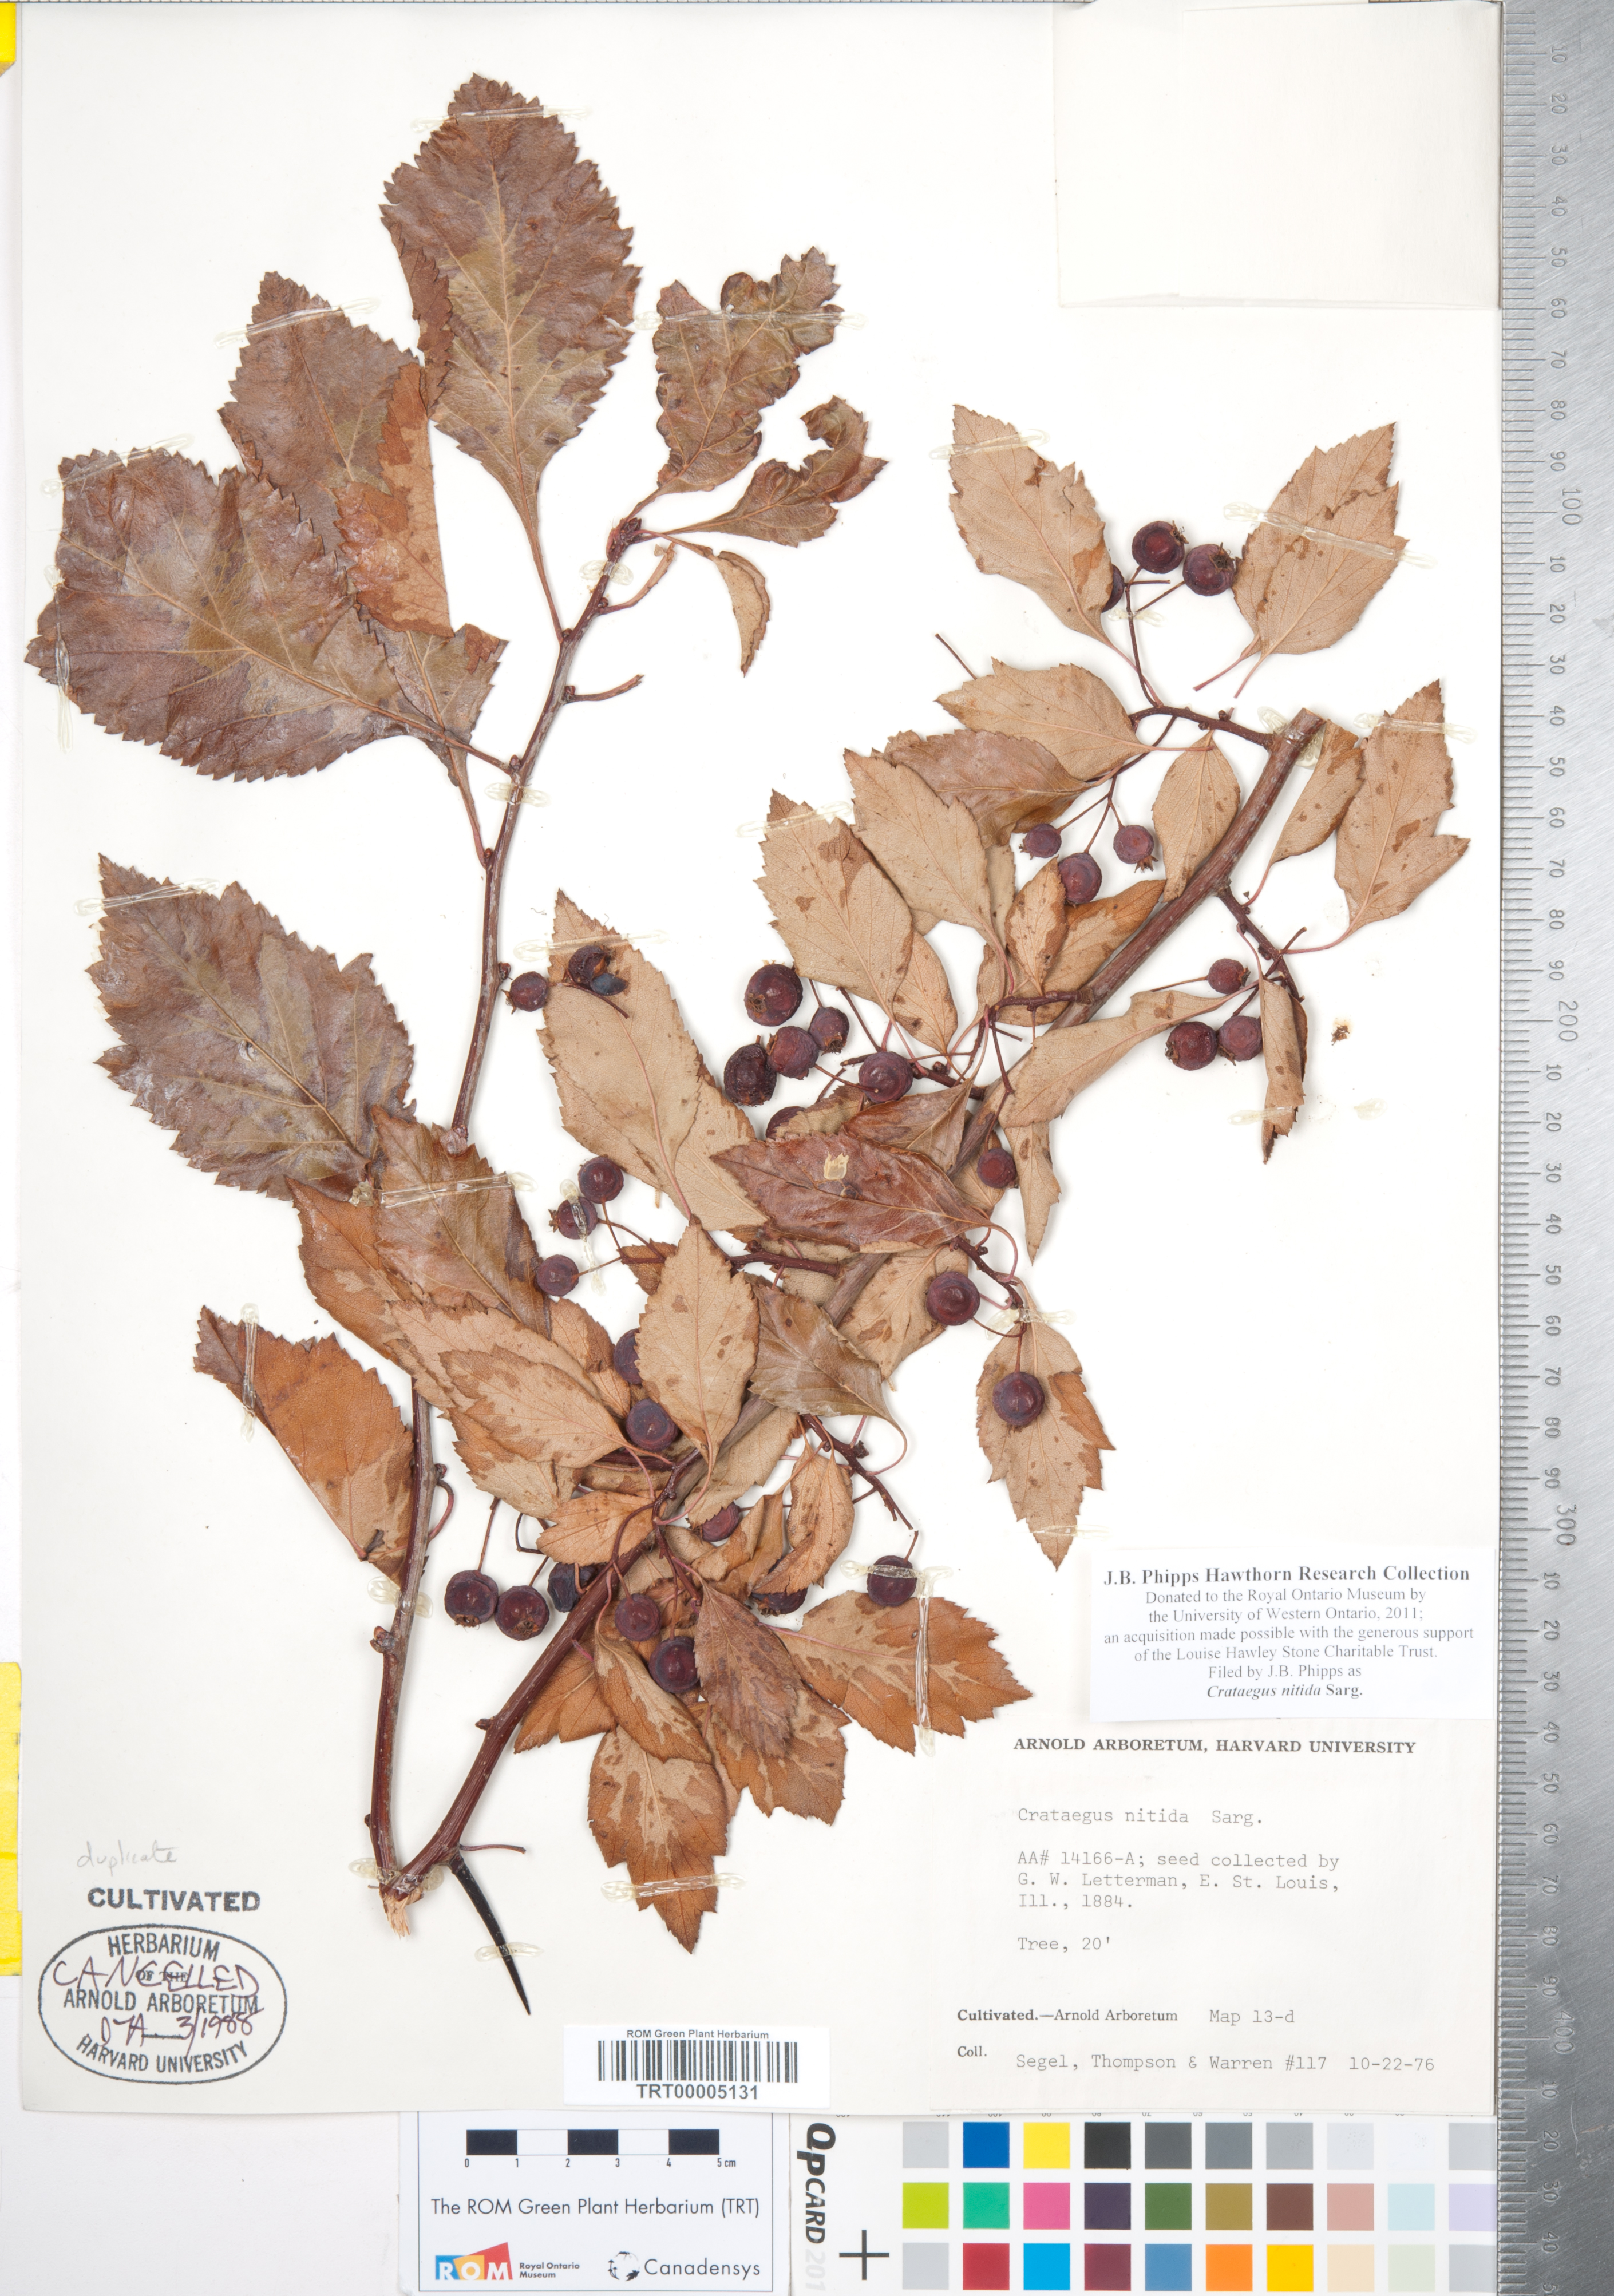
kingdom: Plantae
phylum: Tracheophyta
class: Magnoliopsida
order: Rosales
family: Rosaceae
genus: Crataegus
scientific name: Crataegus nitida
